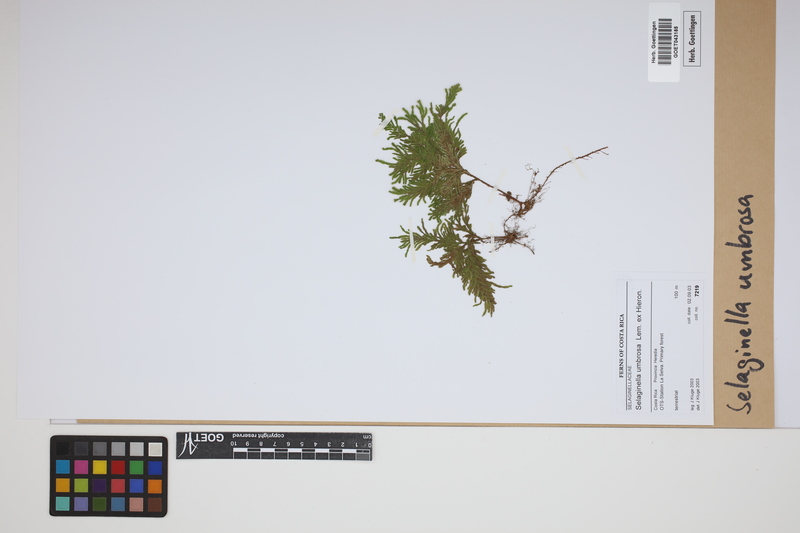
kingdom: Plantae
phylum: Tracheophyta
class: Lycopodiopsida
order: Selaginellales
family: Selaginellaceae
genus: Selaginella
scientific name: Selaginella umbrosa
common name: Spikemoss
